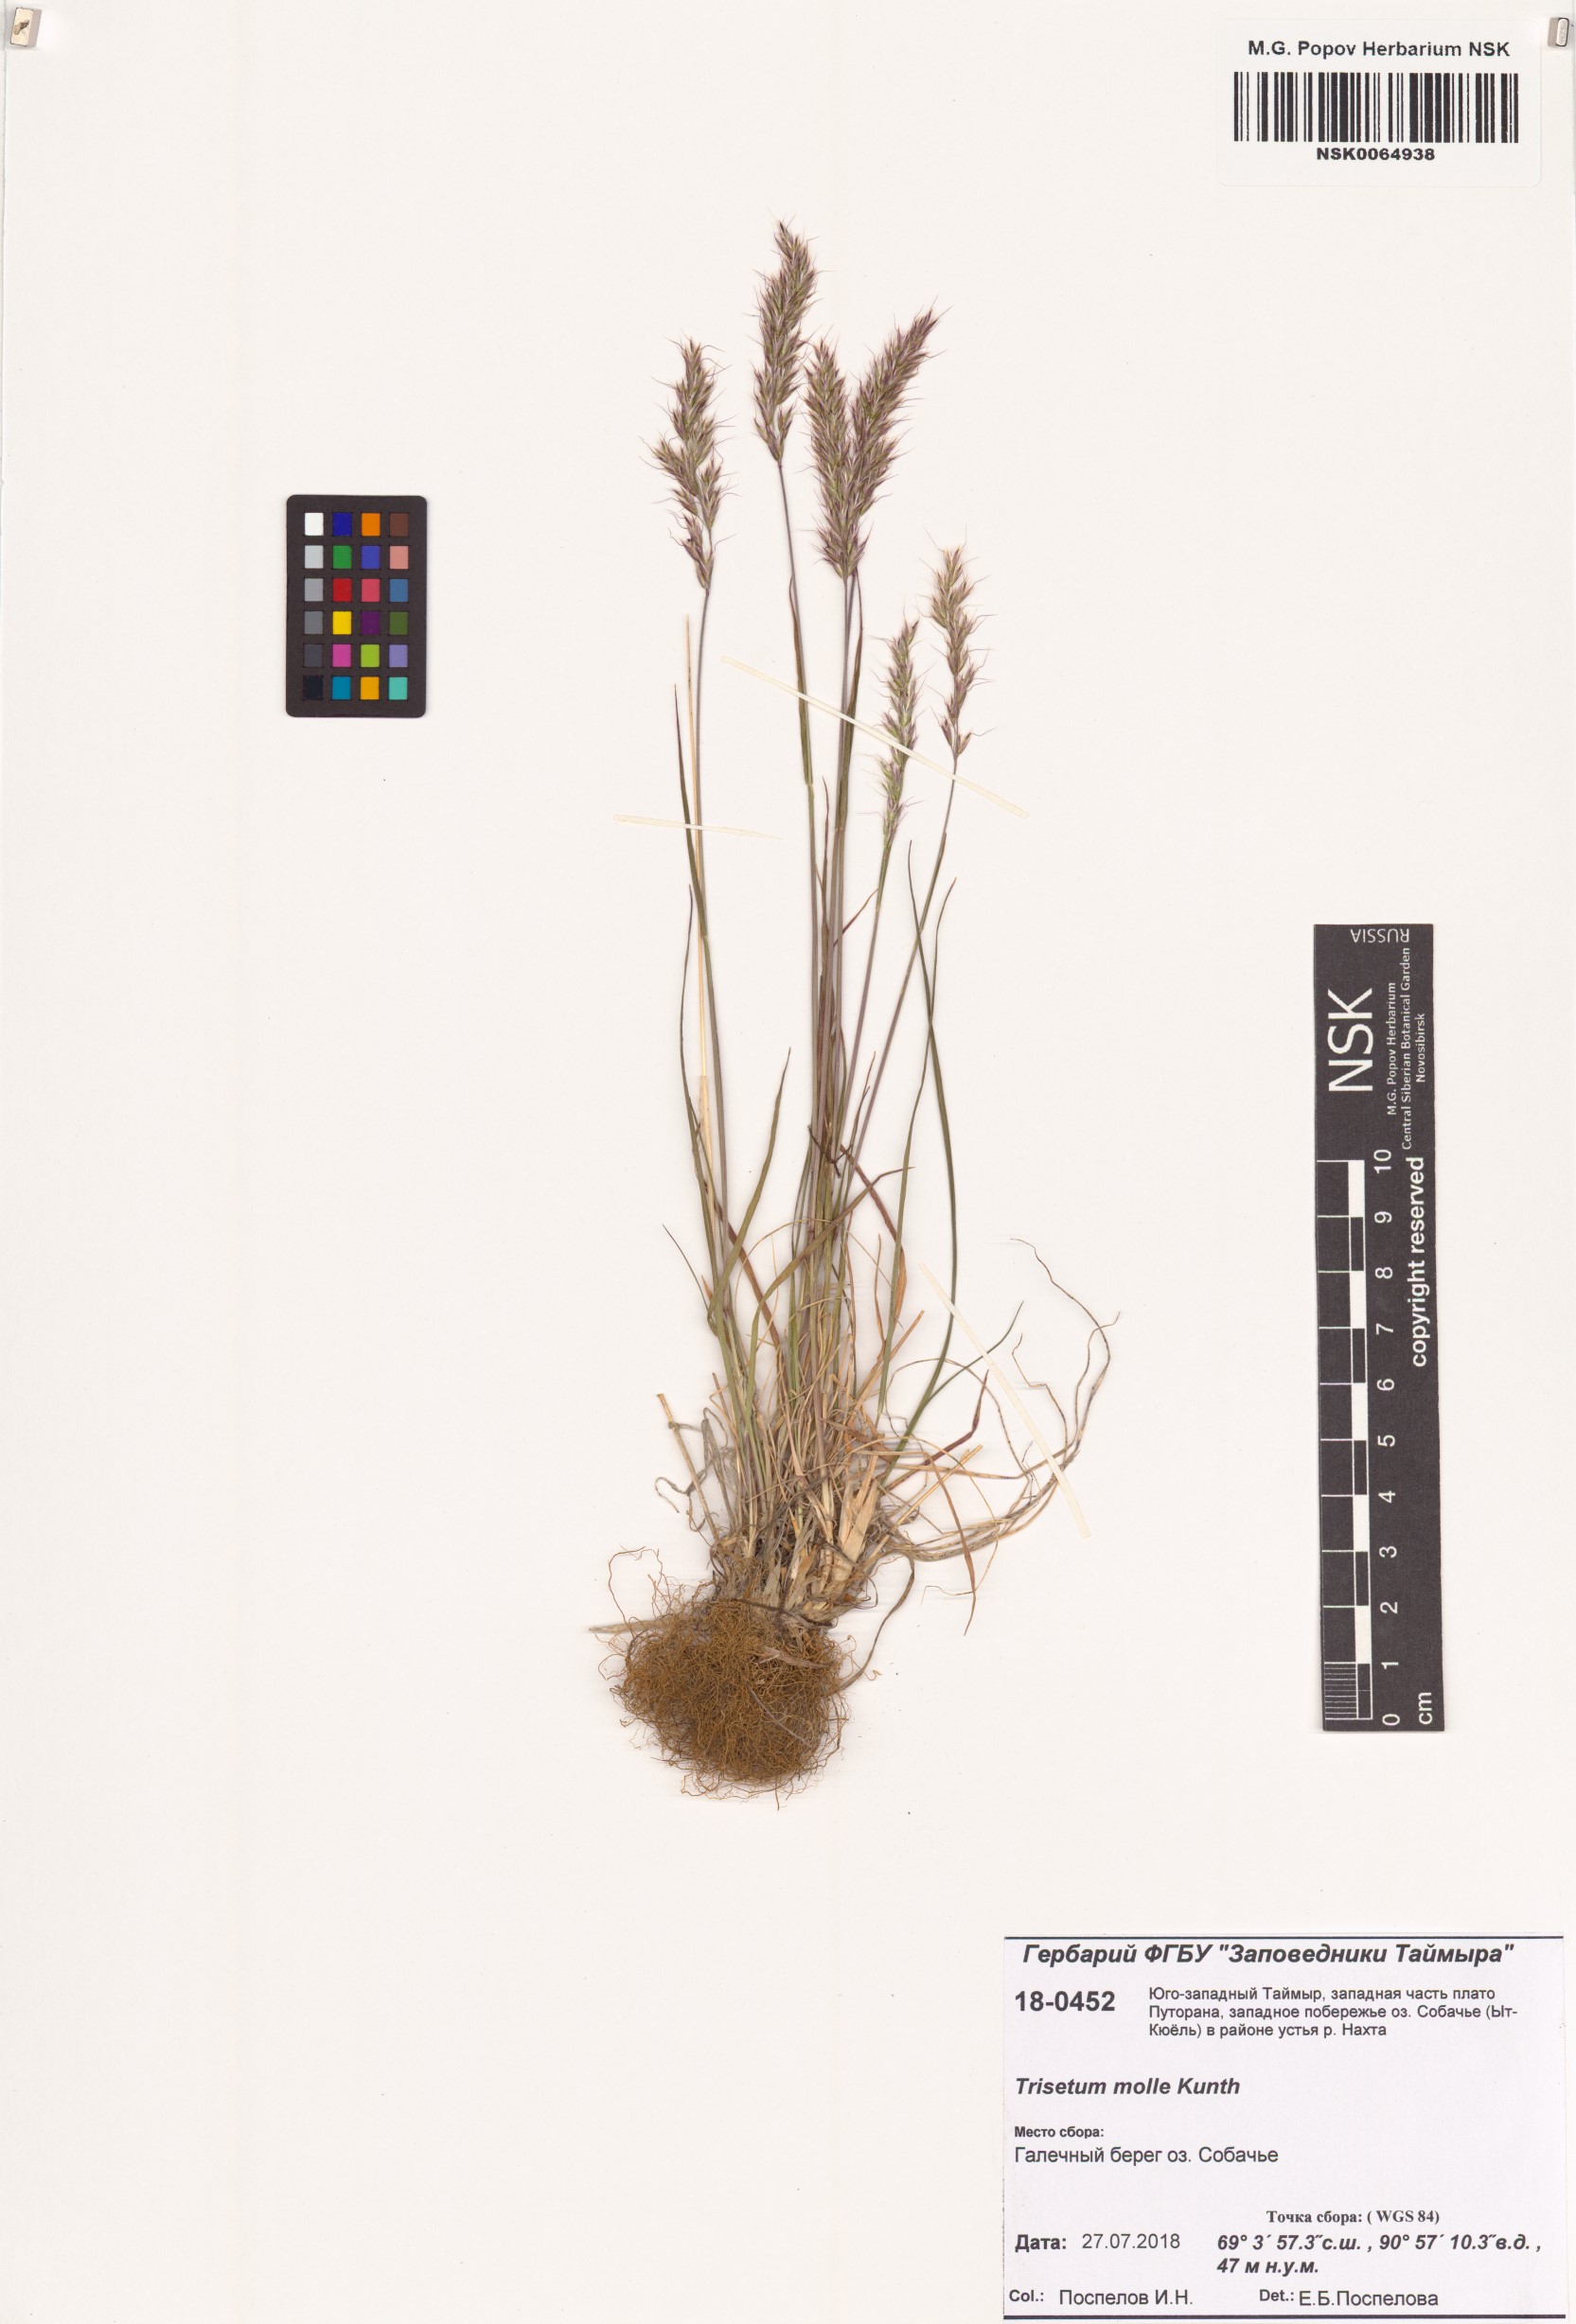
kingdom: Plantae
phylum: Tracheophyta
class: Liliopsida
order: Poales
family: Poaceae
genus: Koeleria
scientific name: Koeleria spicata
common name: Mountain trisetum
